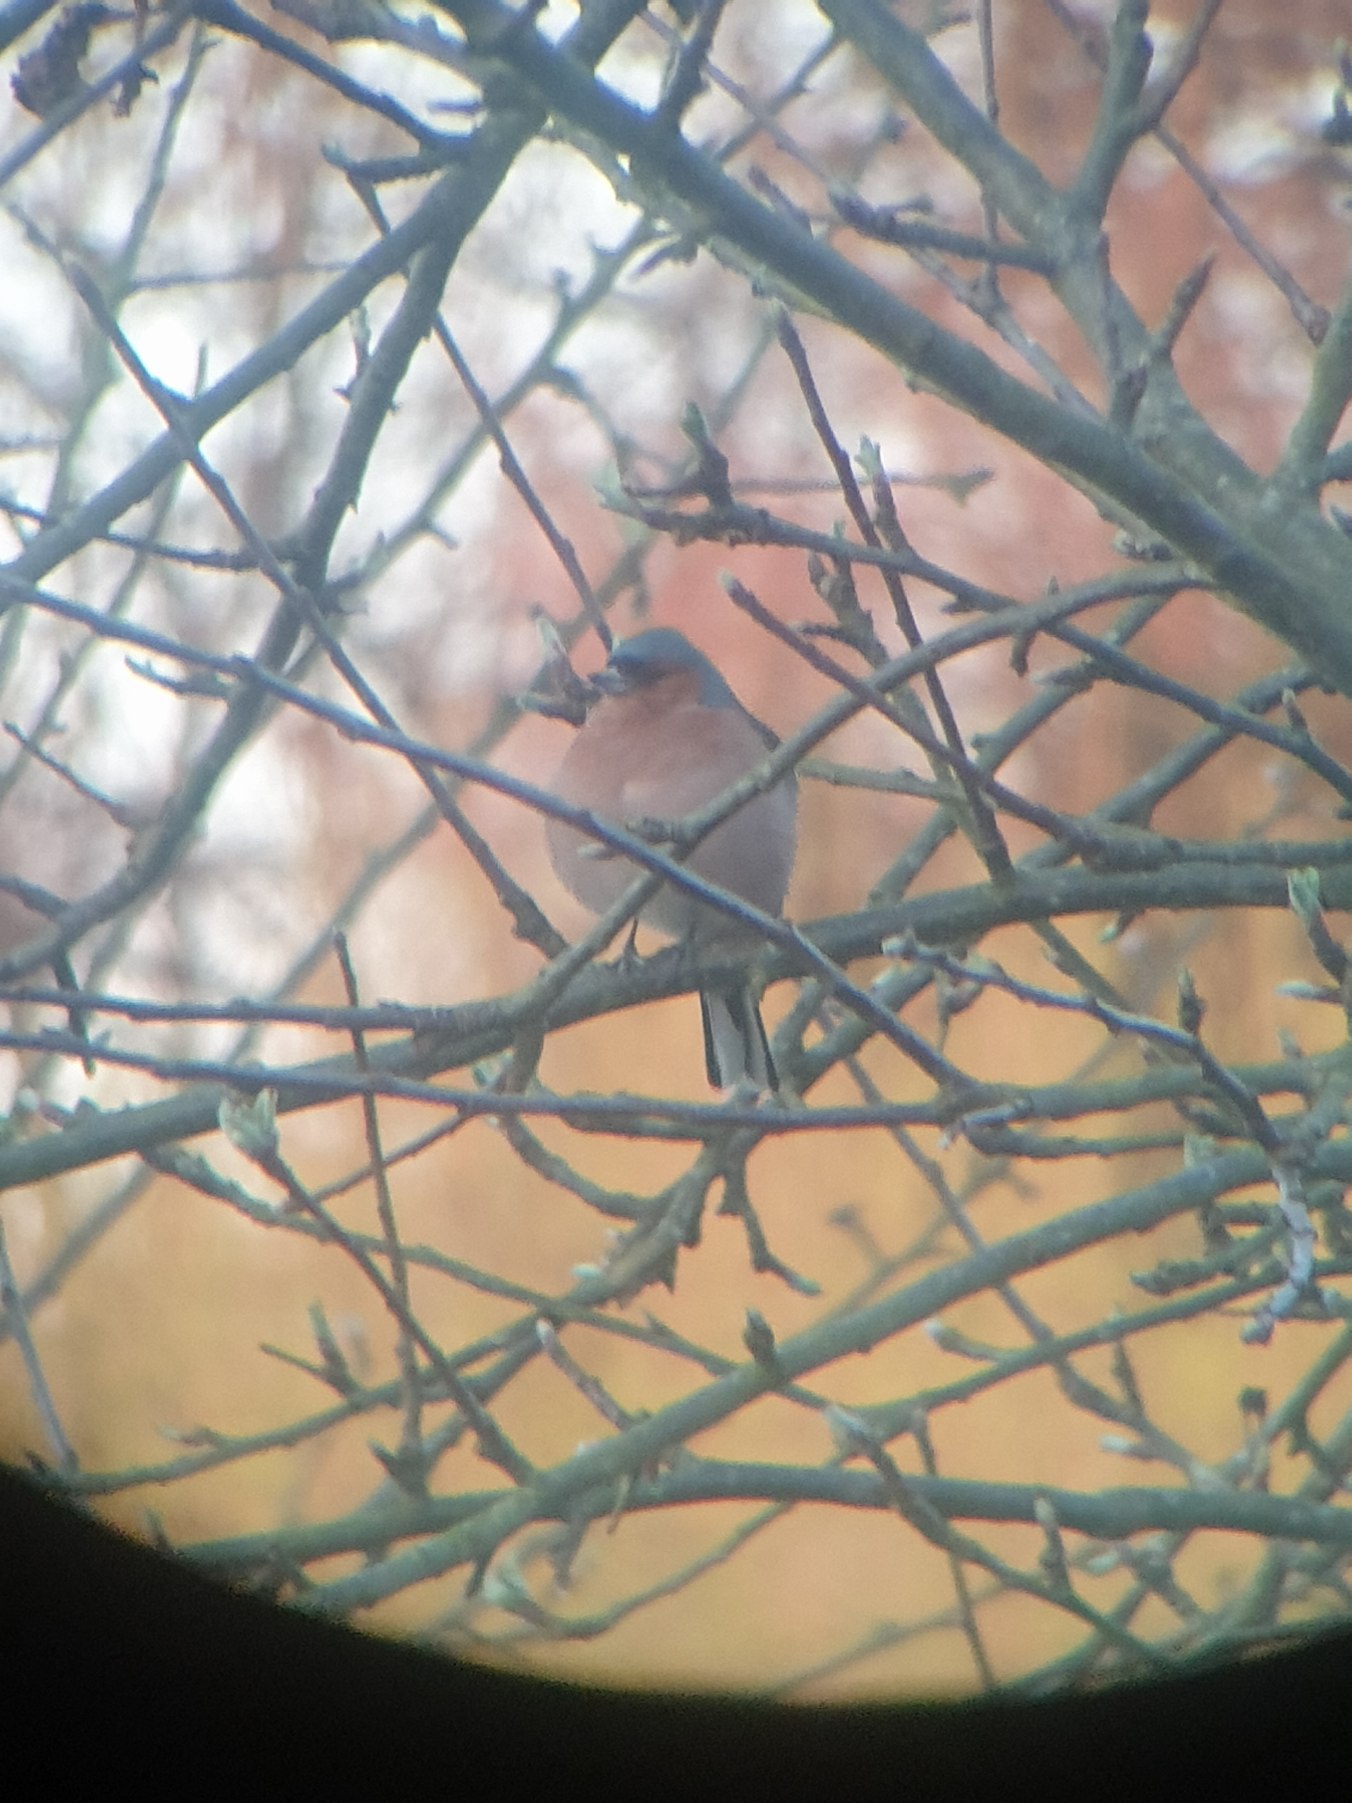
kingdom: Animalia
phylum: Chordata
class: Aves
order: Passeriformes
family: Fringillidae
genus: Fringilla
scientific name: Fringilla coelebs
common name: Bogfinke
